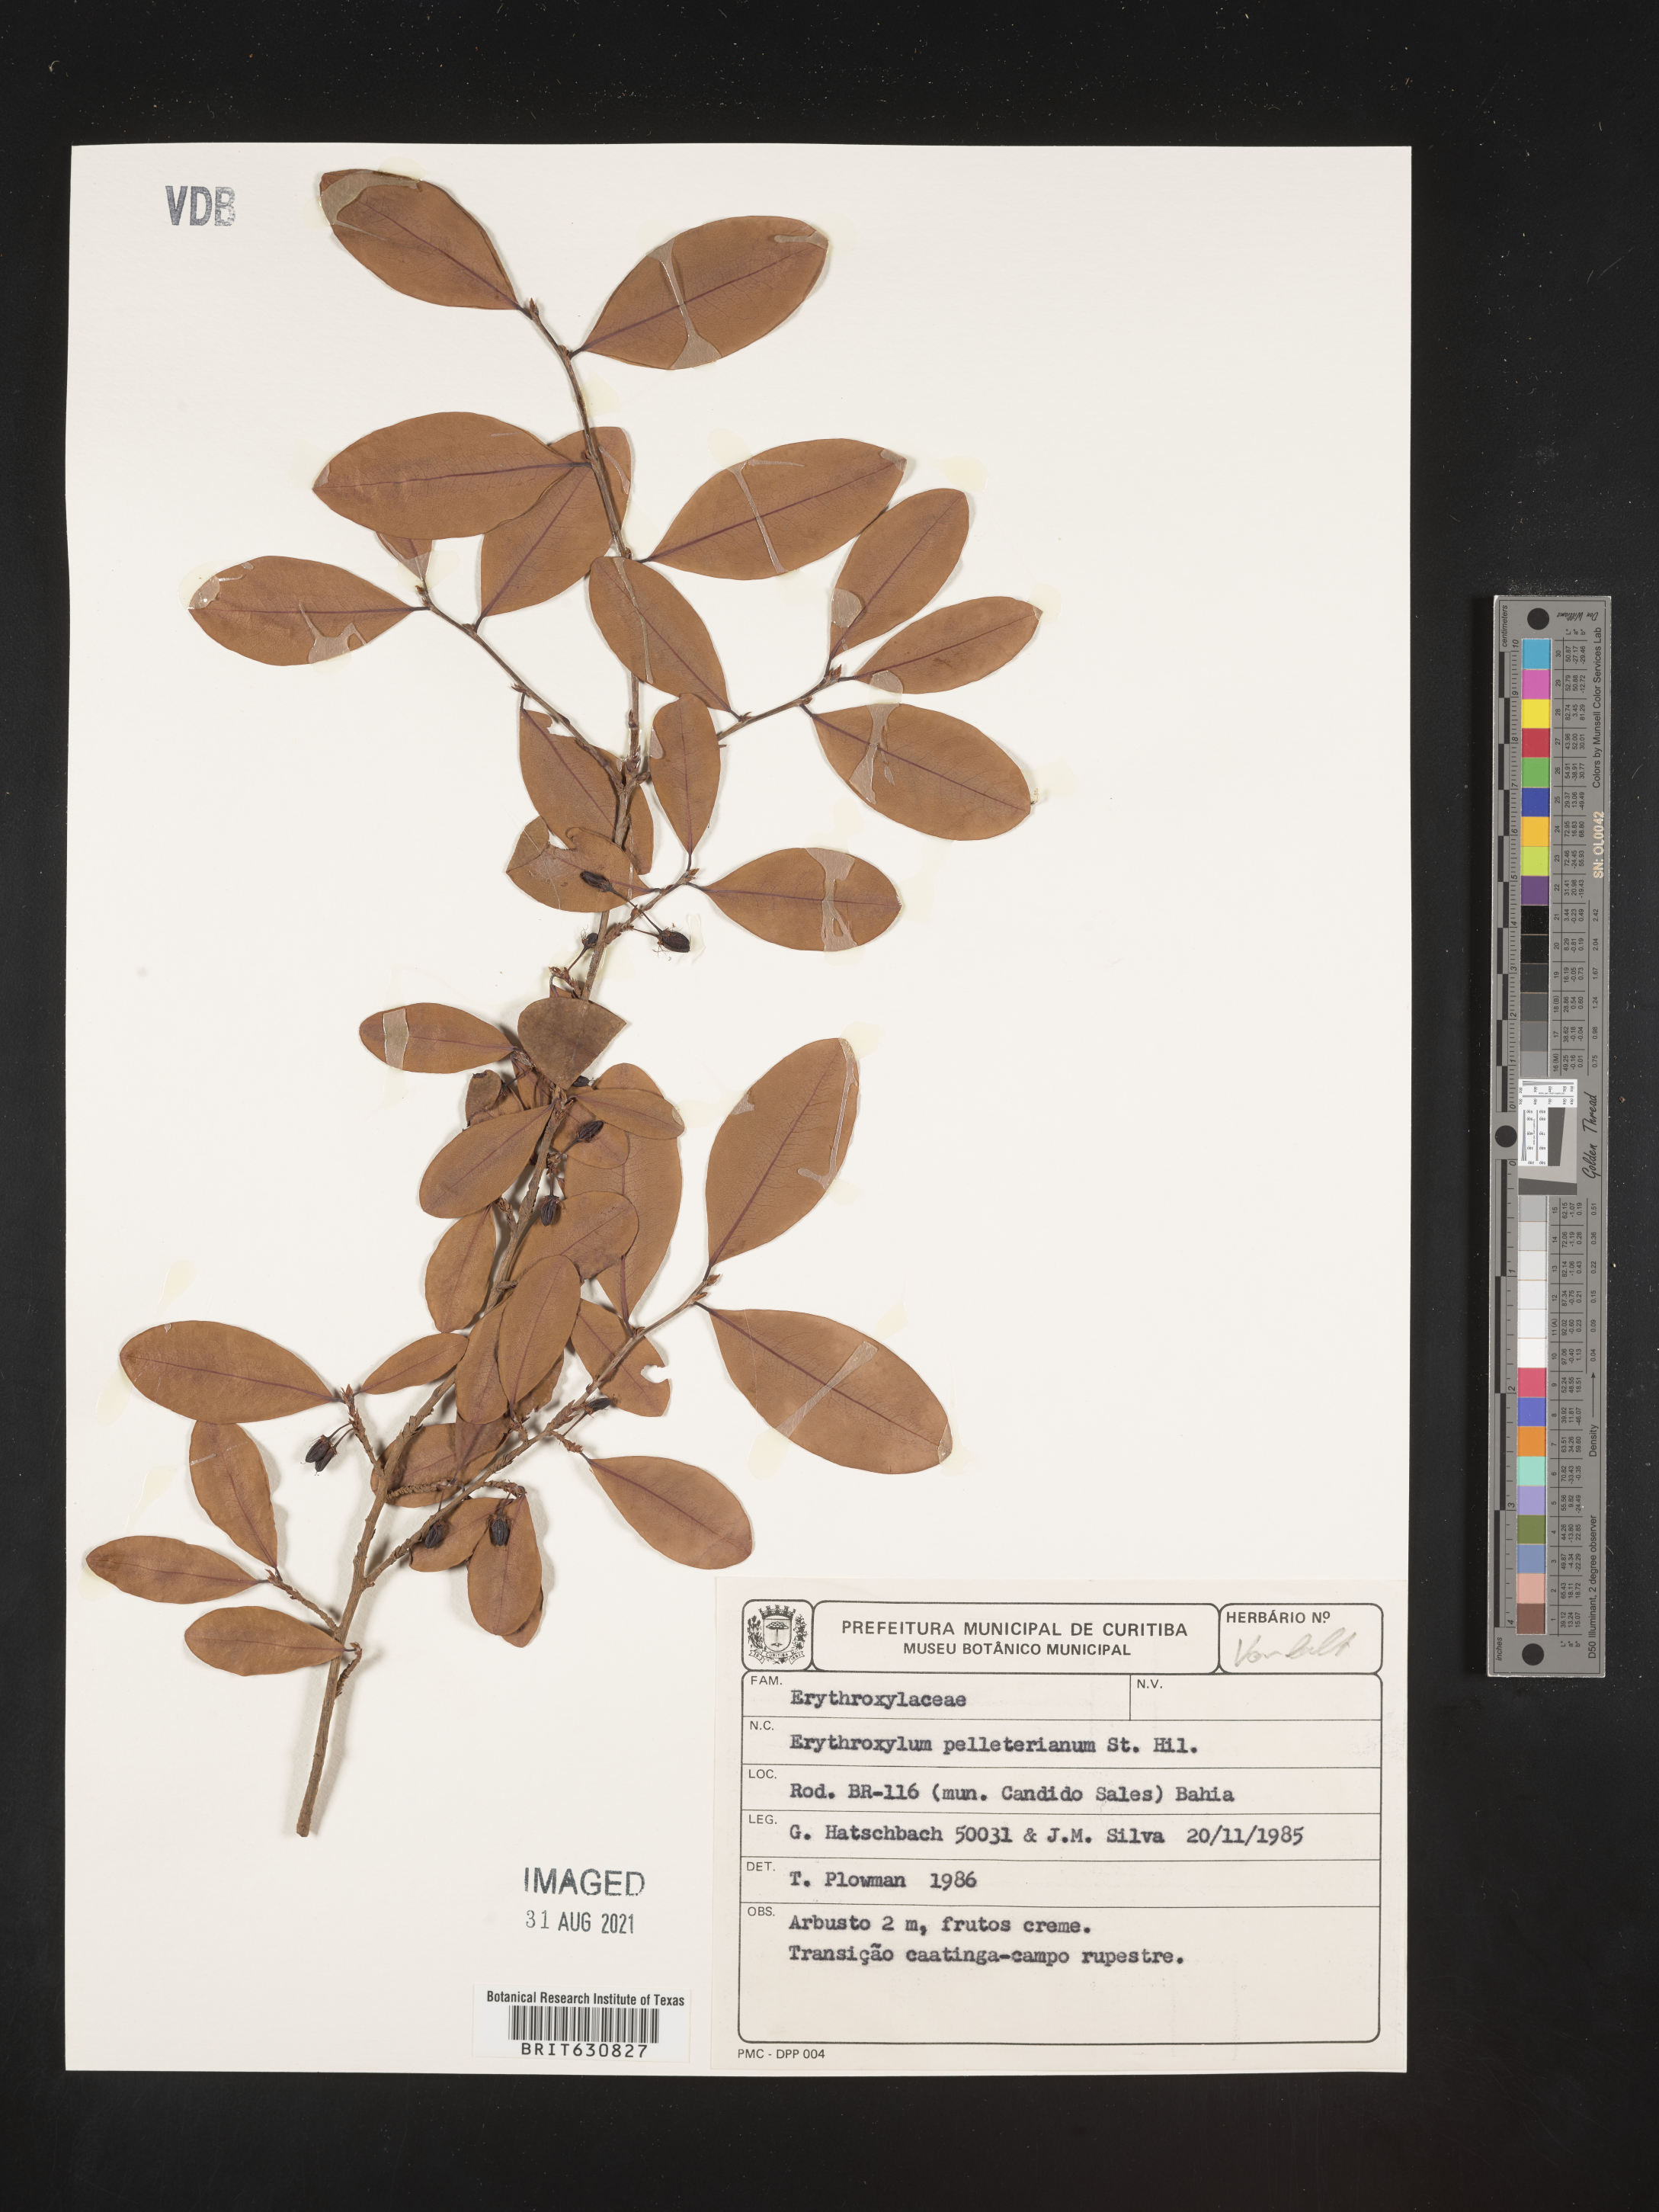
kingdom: Plantae
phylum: Tracheophyta
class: Magnoliopsida
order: Malpighiales
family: Erythroxylaceae
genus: Erythroxylum
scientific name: Erythroxylum
